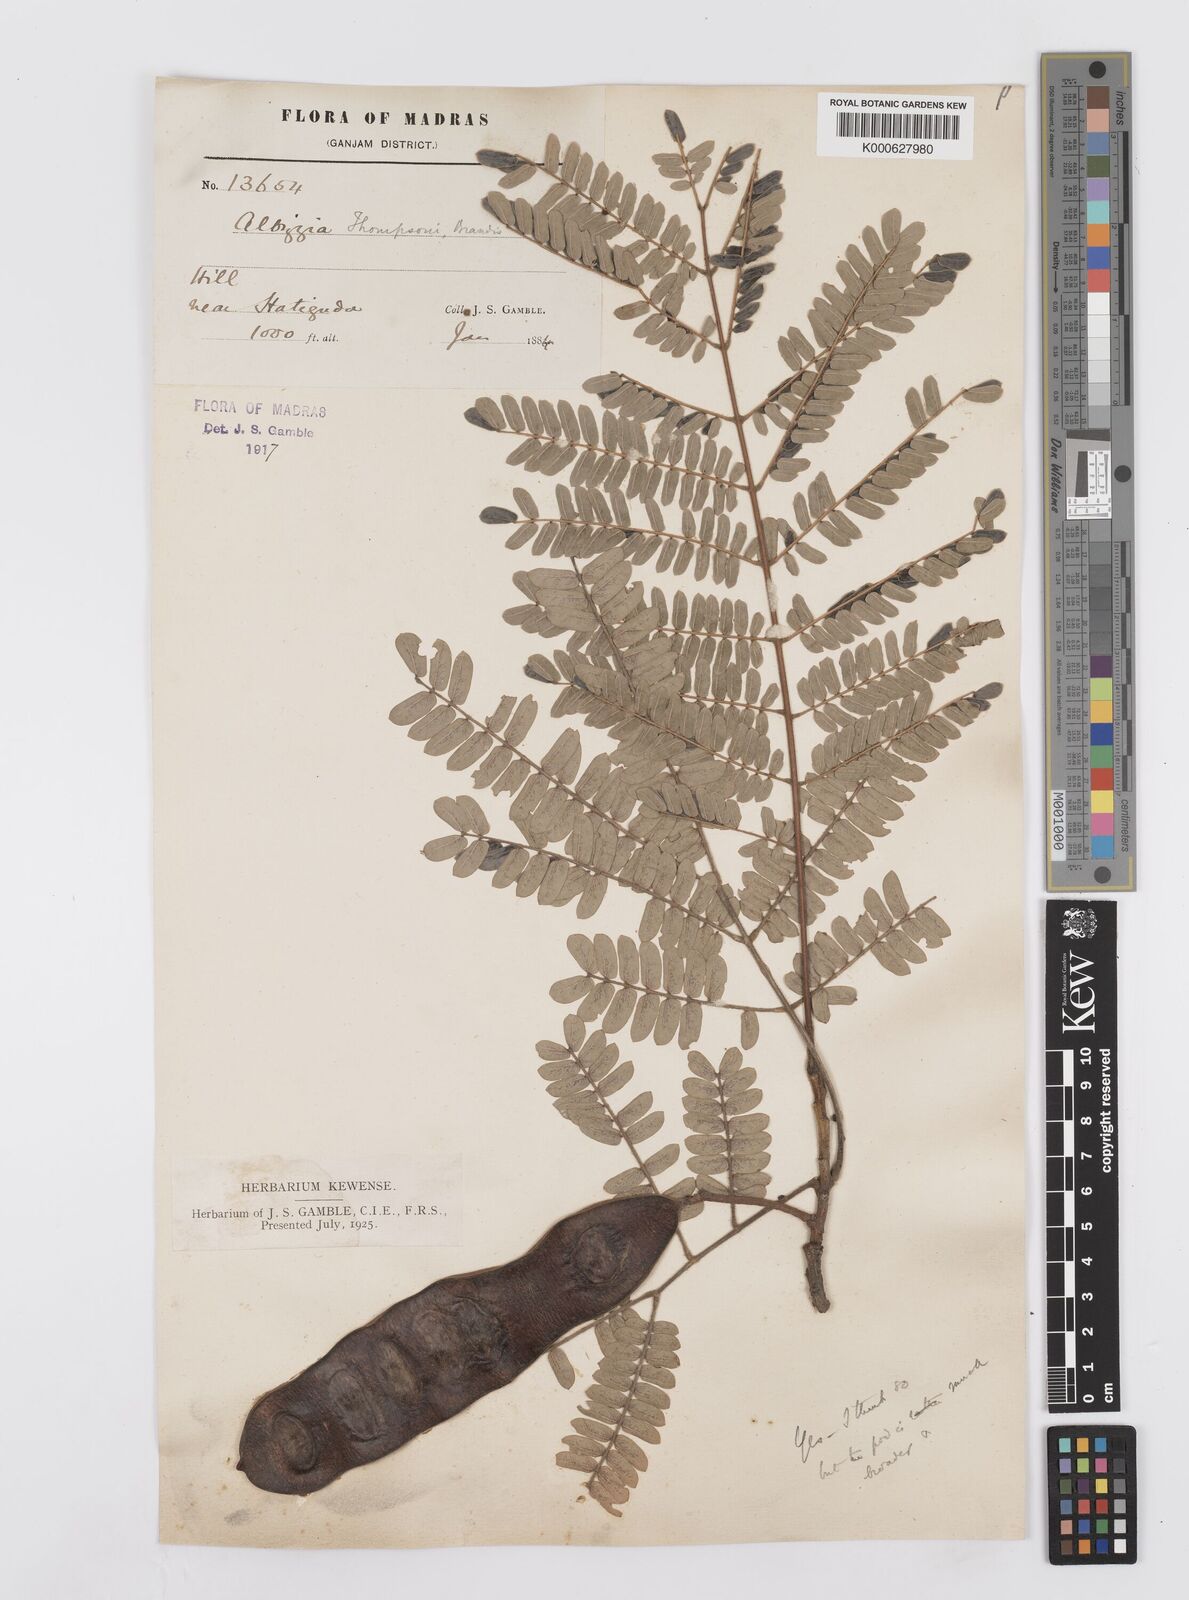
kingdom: Plantae
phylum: Tracheophyta
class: Magnoliopsida
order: Fabales
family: Fabaceae
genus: Albizia
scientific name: Albizia thompsonii
